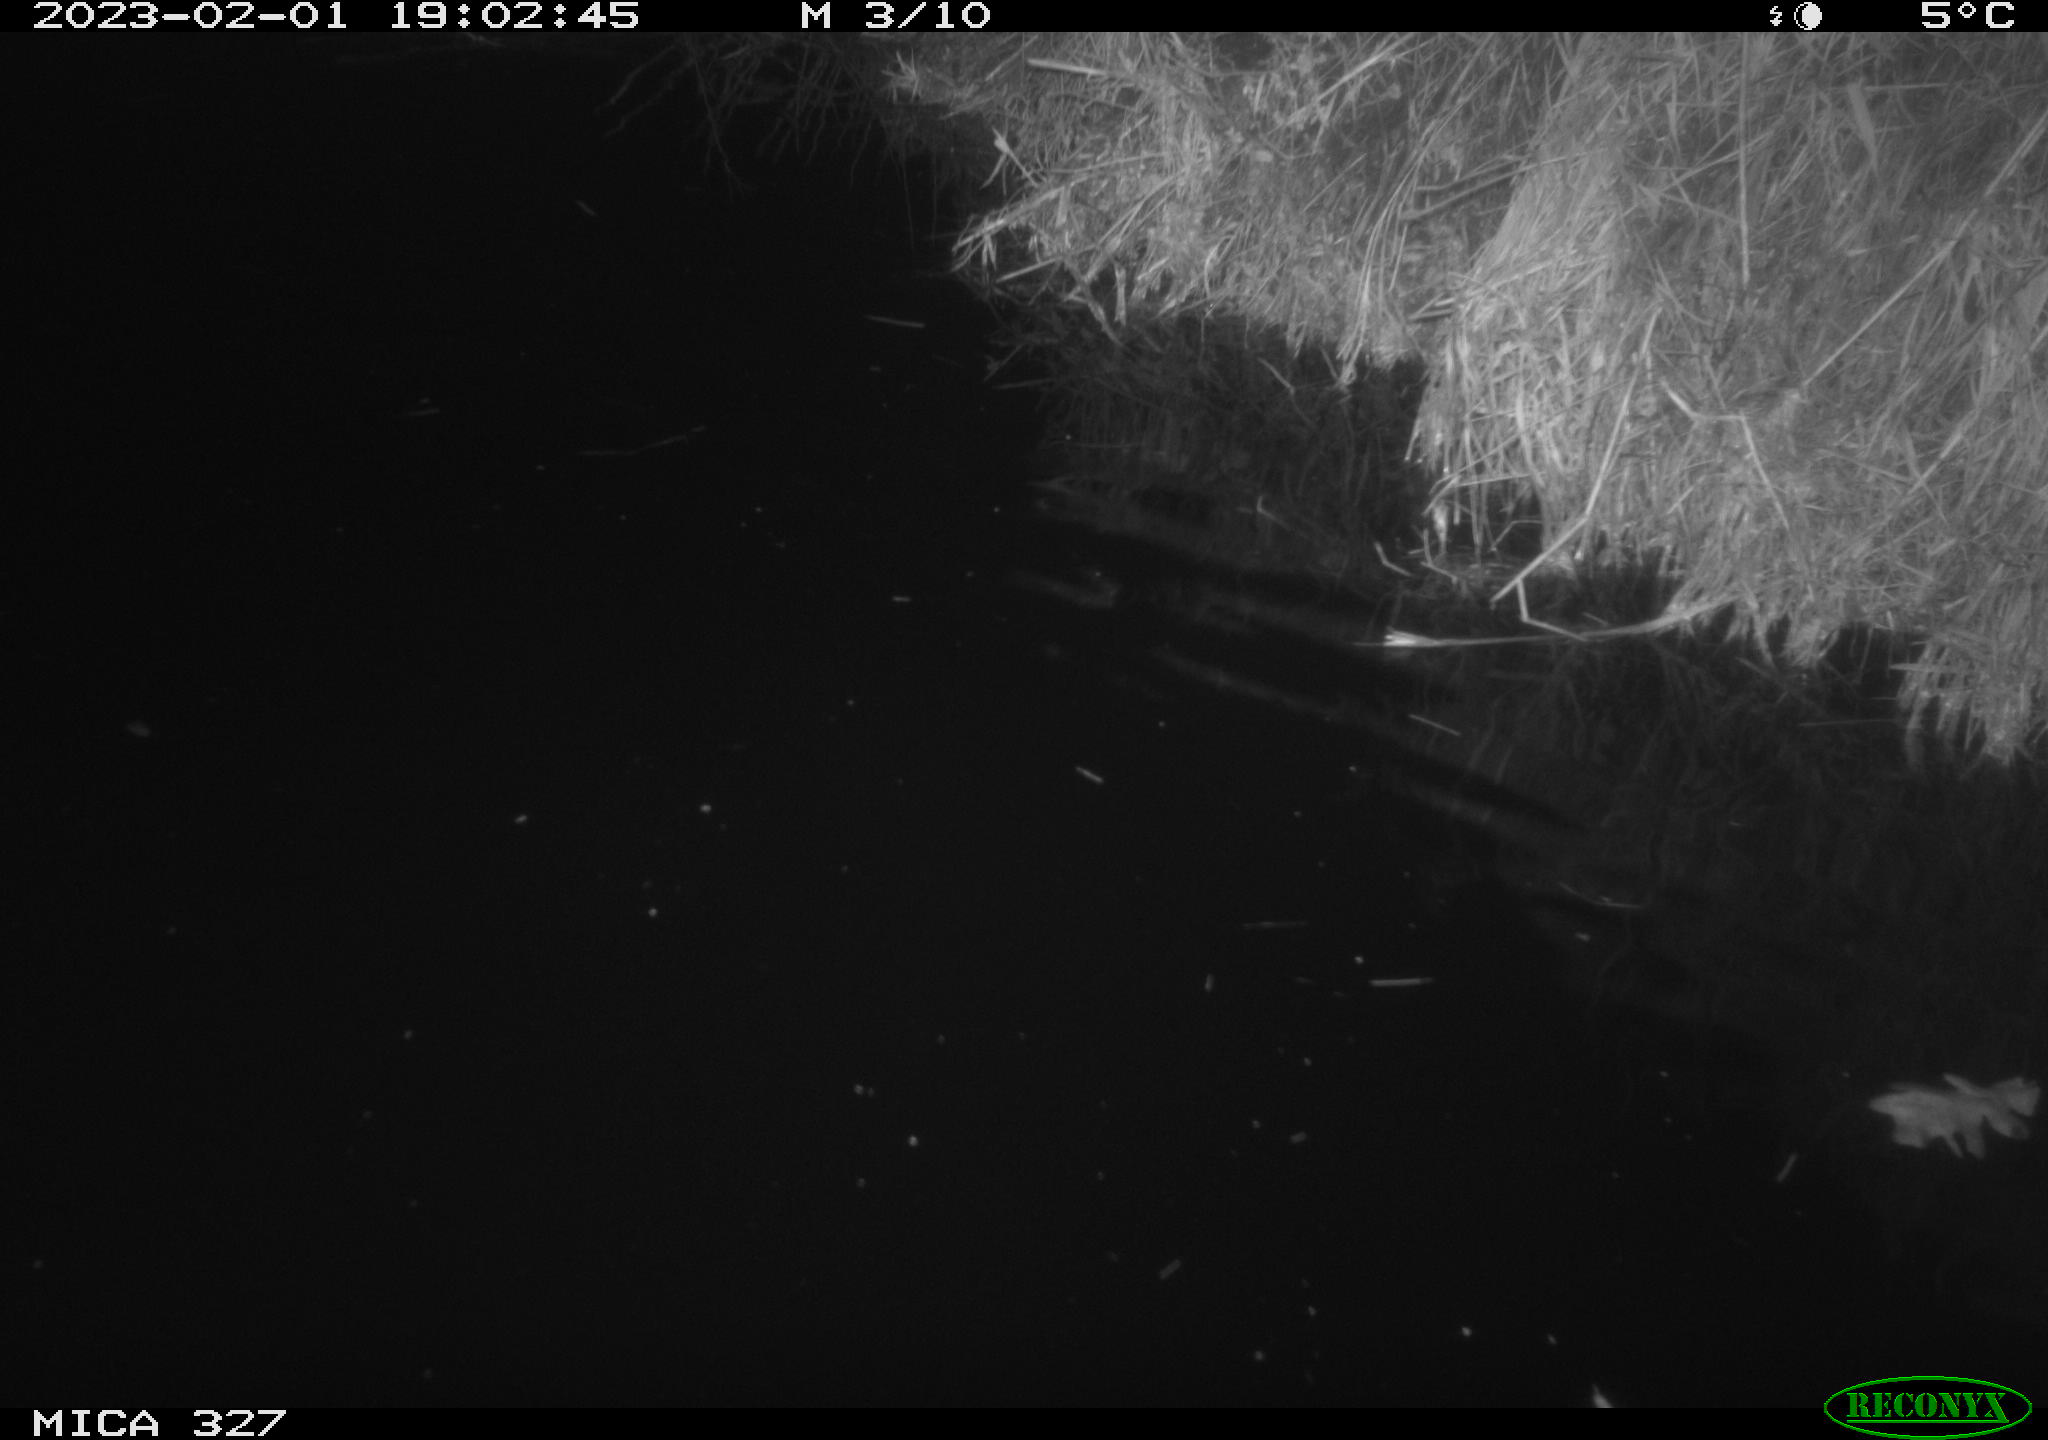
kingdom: Animalia
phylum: Chordata
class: Mammalia
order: Rodentia
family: Cricetidae
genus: Ondatra
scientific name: Ondatra zibethicus
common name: Muskrat
